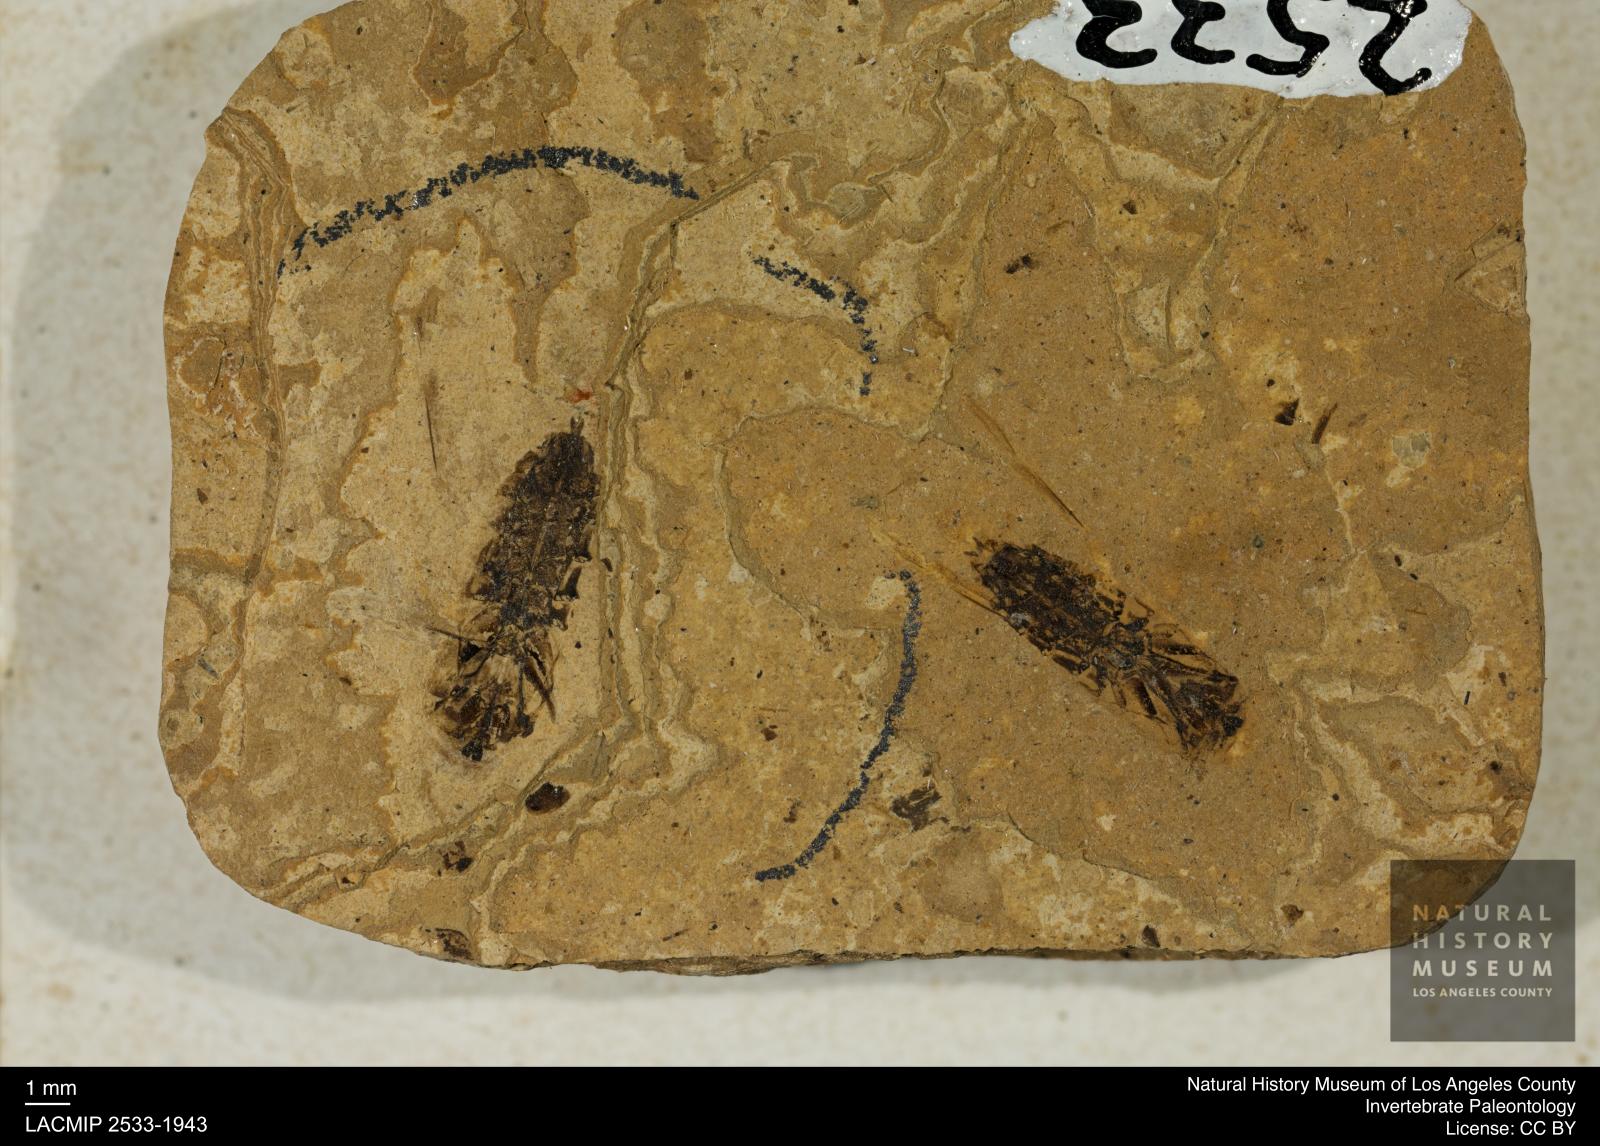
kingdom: Animalia
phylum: Arthropoda
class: Insecta
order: Hemiptera
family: Notonectidae
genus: Anisops
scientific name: Anisops Notonecta deichmuelleri
